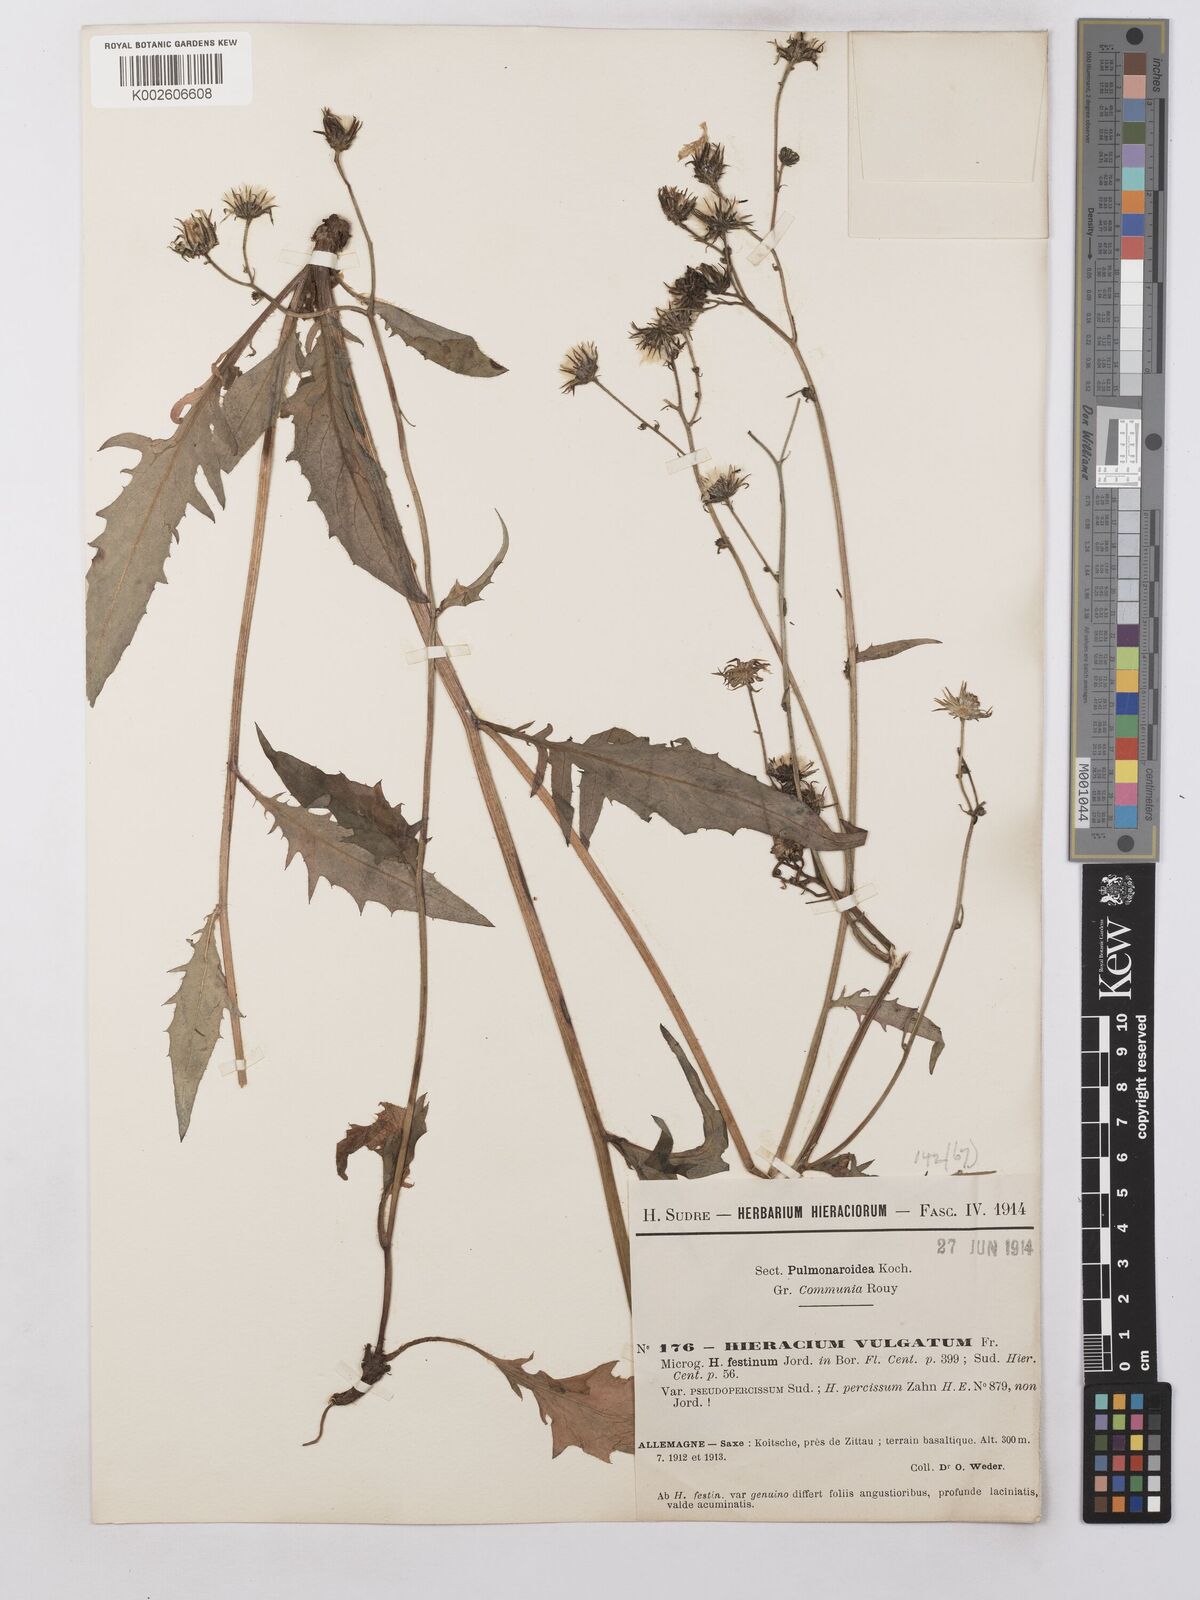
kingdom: Plantae
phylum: Tracheophyta
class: Magnoliopsida
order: Asterales
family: Asteraceae
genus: Hieracium
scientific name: Hieracium lachenalii
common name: Common hawkweed
